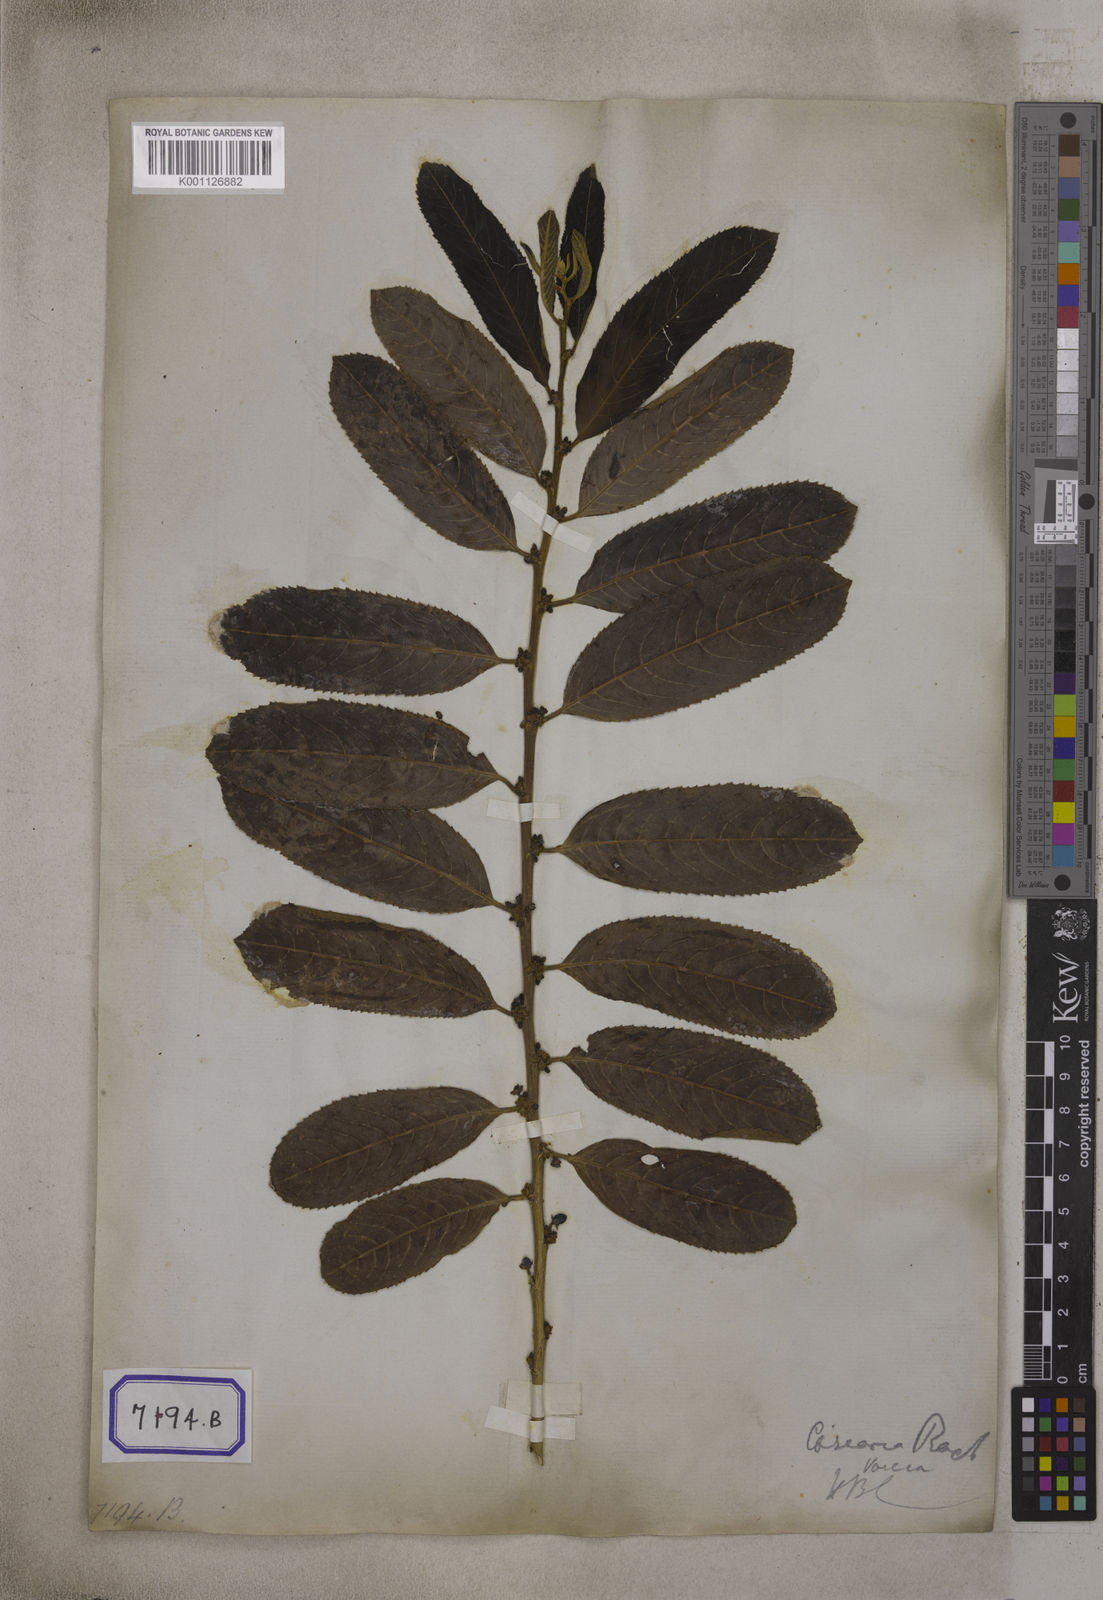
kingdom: Plantae
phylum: Tracheophyta
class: Magnoliopsida
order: Malpighiales
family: Salicaceae
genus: Casearia
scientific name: Casearia vareca
